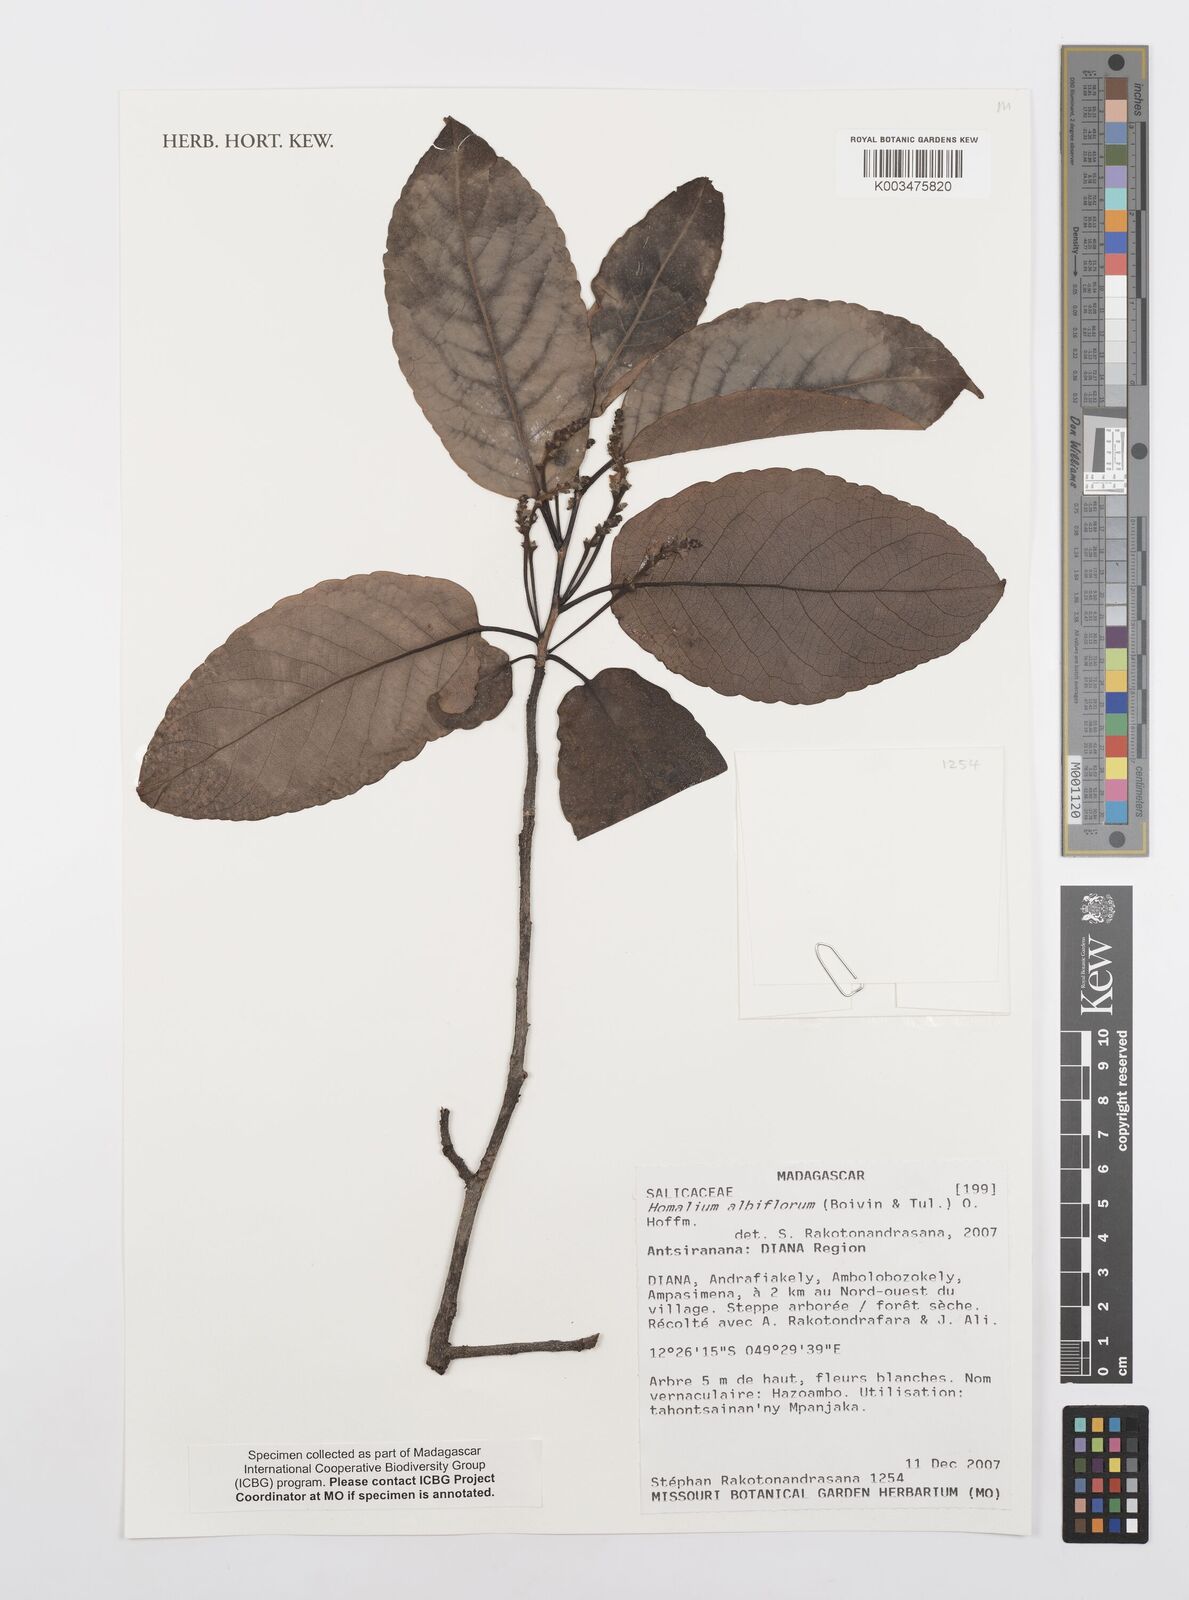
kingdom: Plantae
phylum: Tracheophyta
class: Magnoliopsida
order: Malpighiales
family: Salicaceae
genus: Homalium
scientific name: Homalium albiflorum
